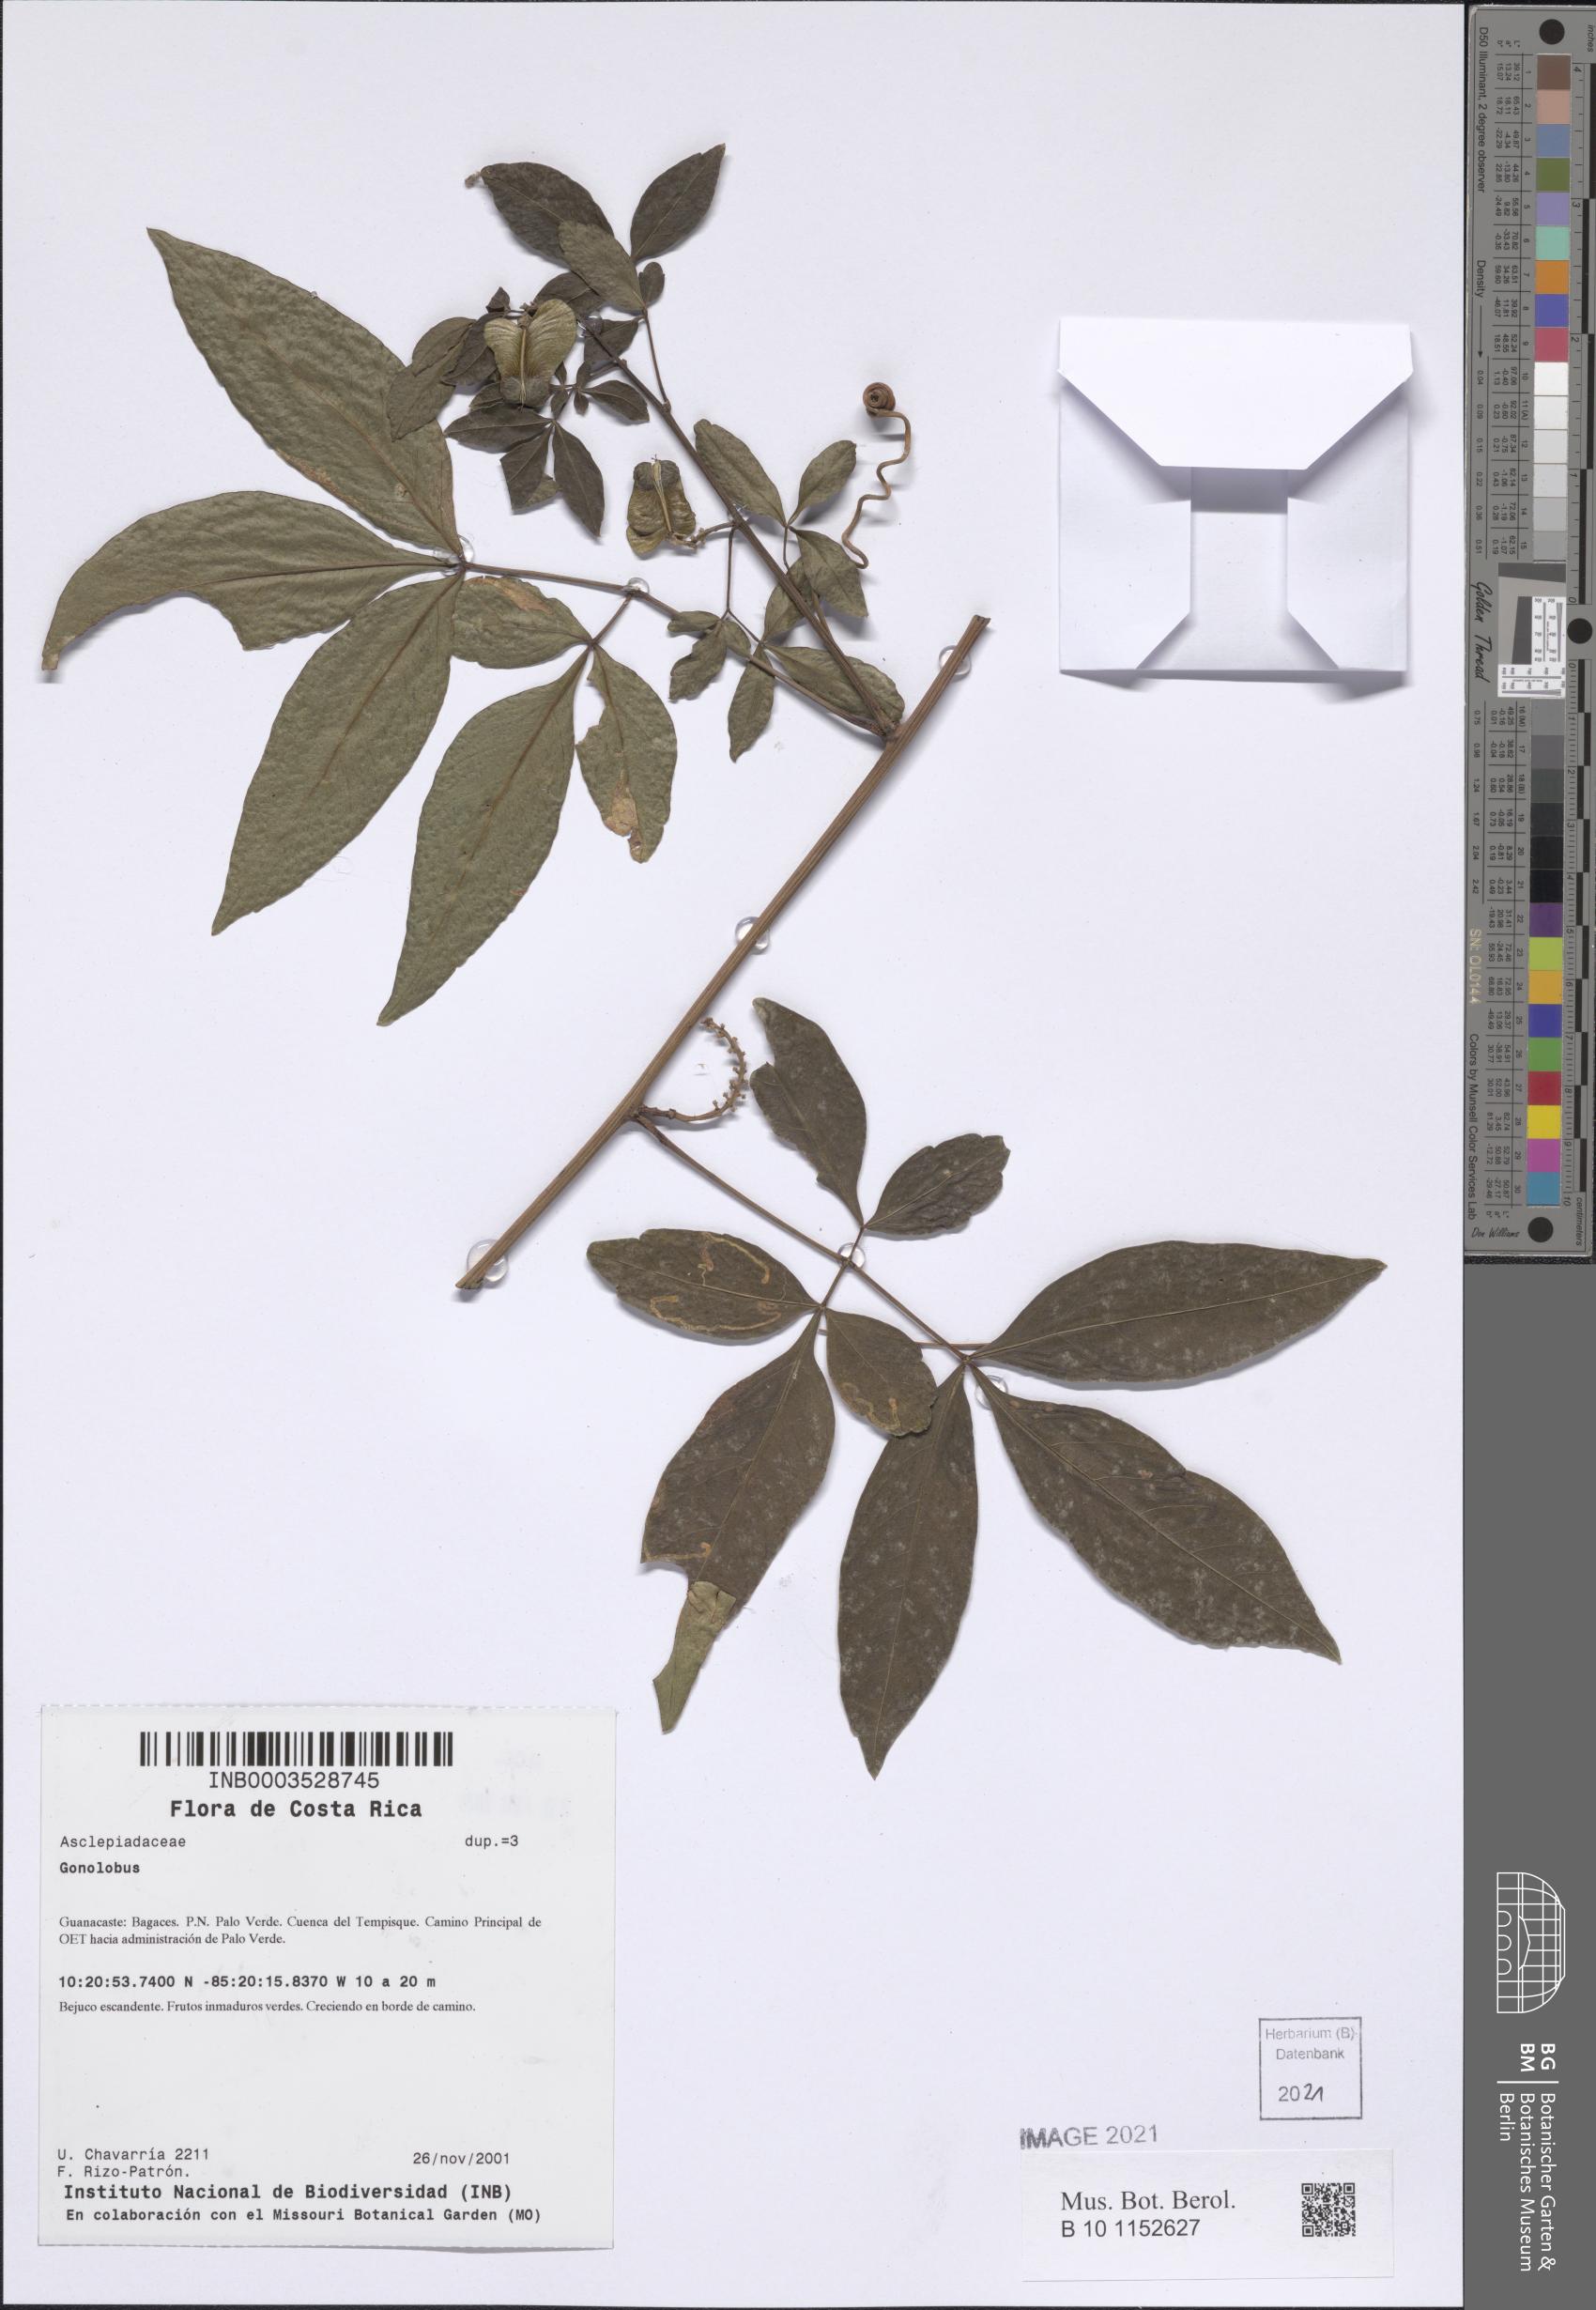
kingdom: Plantae
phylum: Tracheophyta
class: Magnoliopsida
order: Gentianales
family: Apocynaceae
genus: Funastrum
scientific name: Funastrum lindenianum
